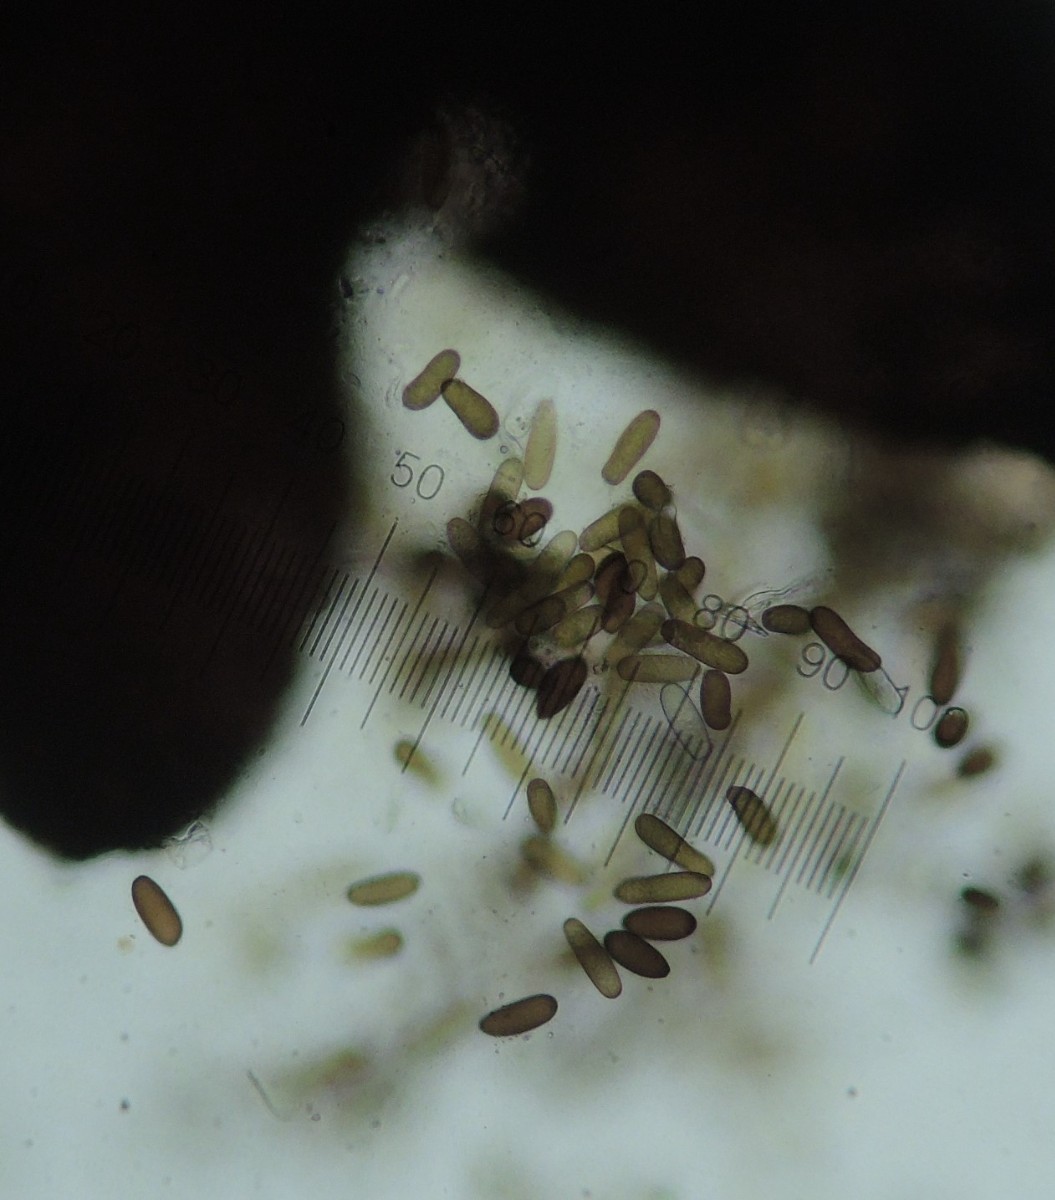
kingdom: Fungi
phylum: Ascomycota
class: Dothideomycetes
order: Botryosphaeriales
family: Botryosphaeriaceae
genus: Sphaeropsis
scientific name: Sphaeropsis sapinea
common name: Sphaeropsis blight
